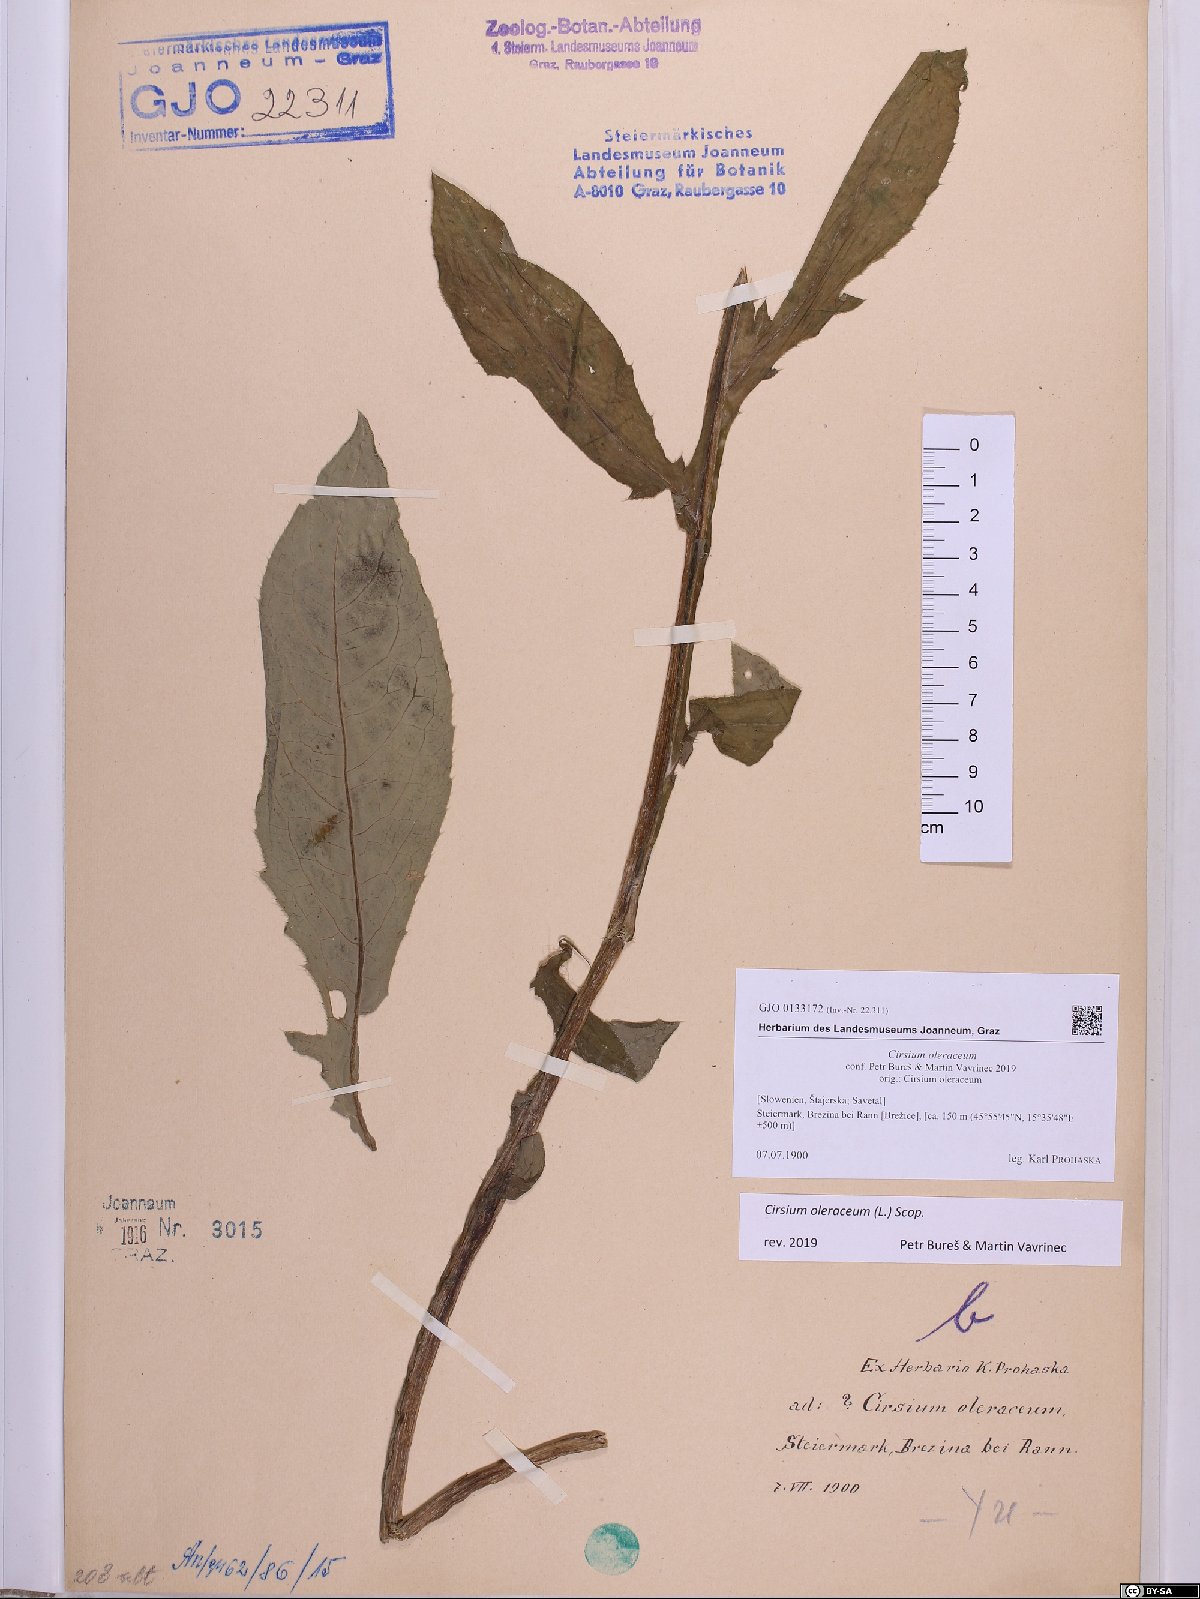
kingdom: Plantae
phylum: Tracheophyta
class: Magnoliopsida
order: Asterales
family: Asteraceae
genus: Cirsium
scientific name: Cirsium oleraceum
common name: Cabbage thistle
